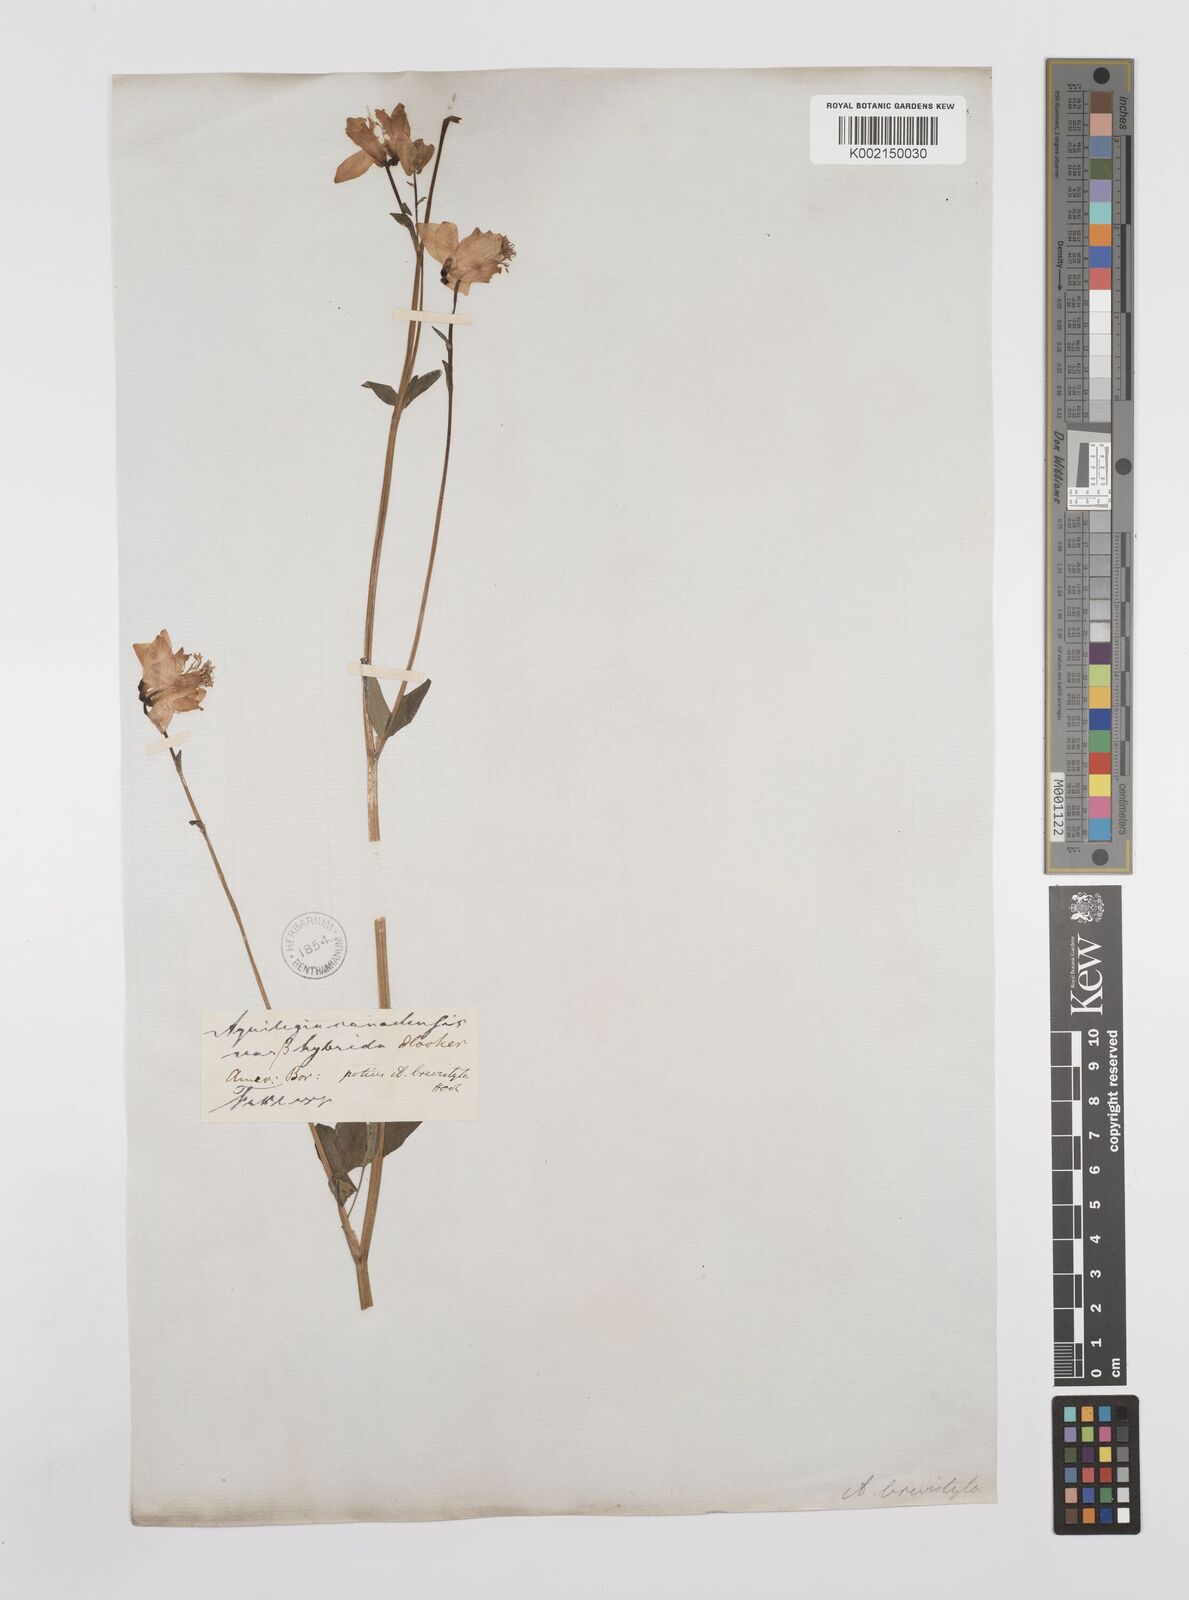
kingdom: Plantae
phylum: Tracheophyta
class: Magnoliopsida
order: Ranunculales
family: Ranunculaceae
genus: Aquilegia
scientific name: Aquilegia brevistyla
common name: Yukon columbine
